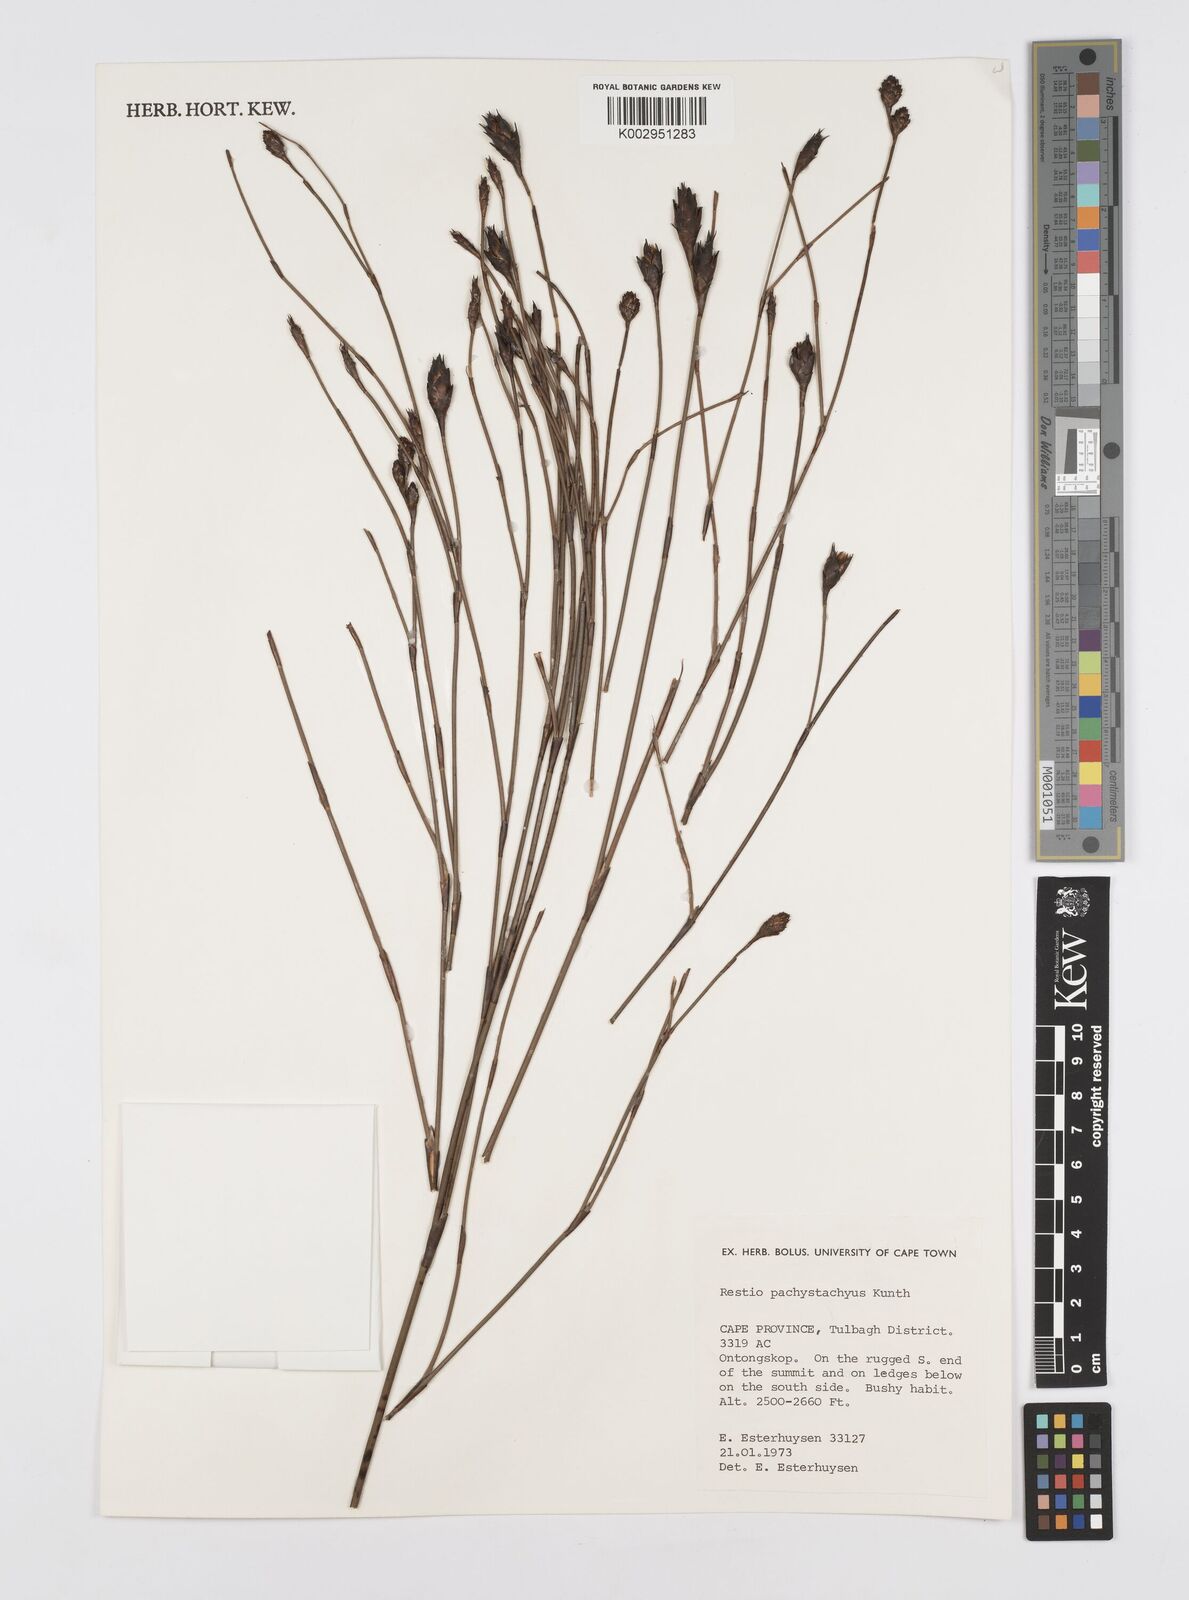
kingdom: Plantae
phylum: Tracheophyta
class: Liliopsida
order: Poales
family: Restionaceae
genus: Restio
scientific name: Restio pachystachyus
